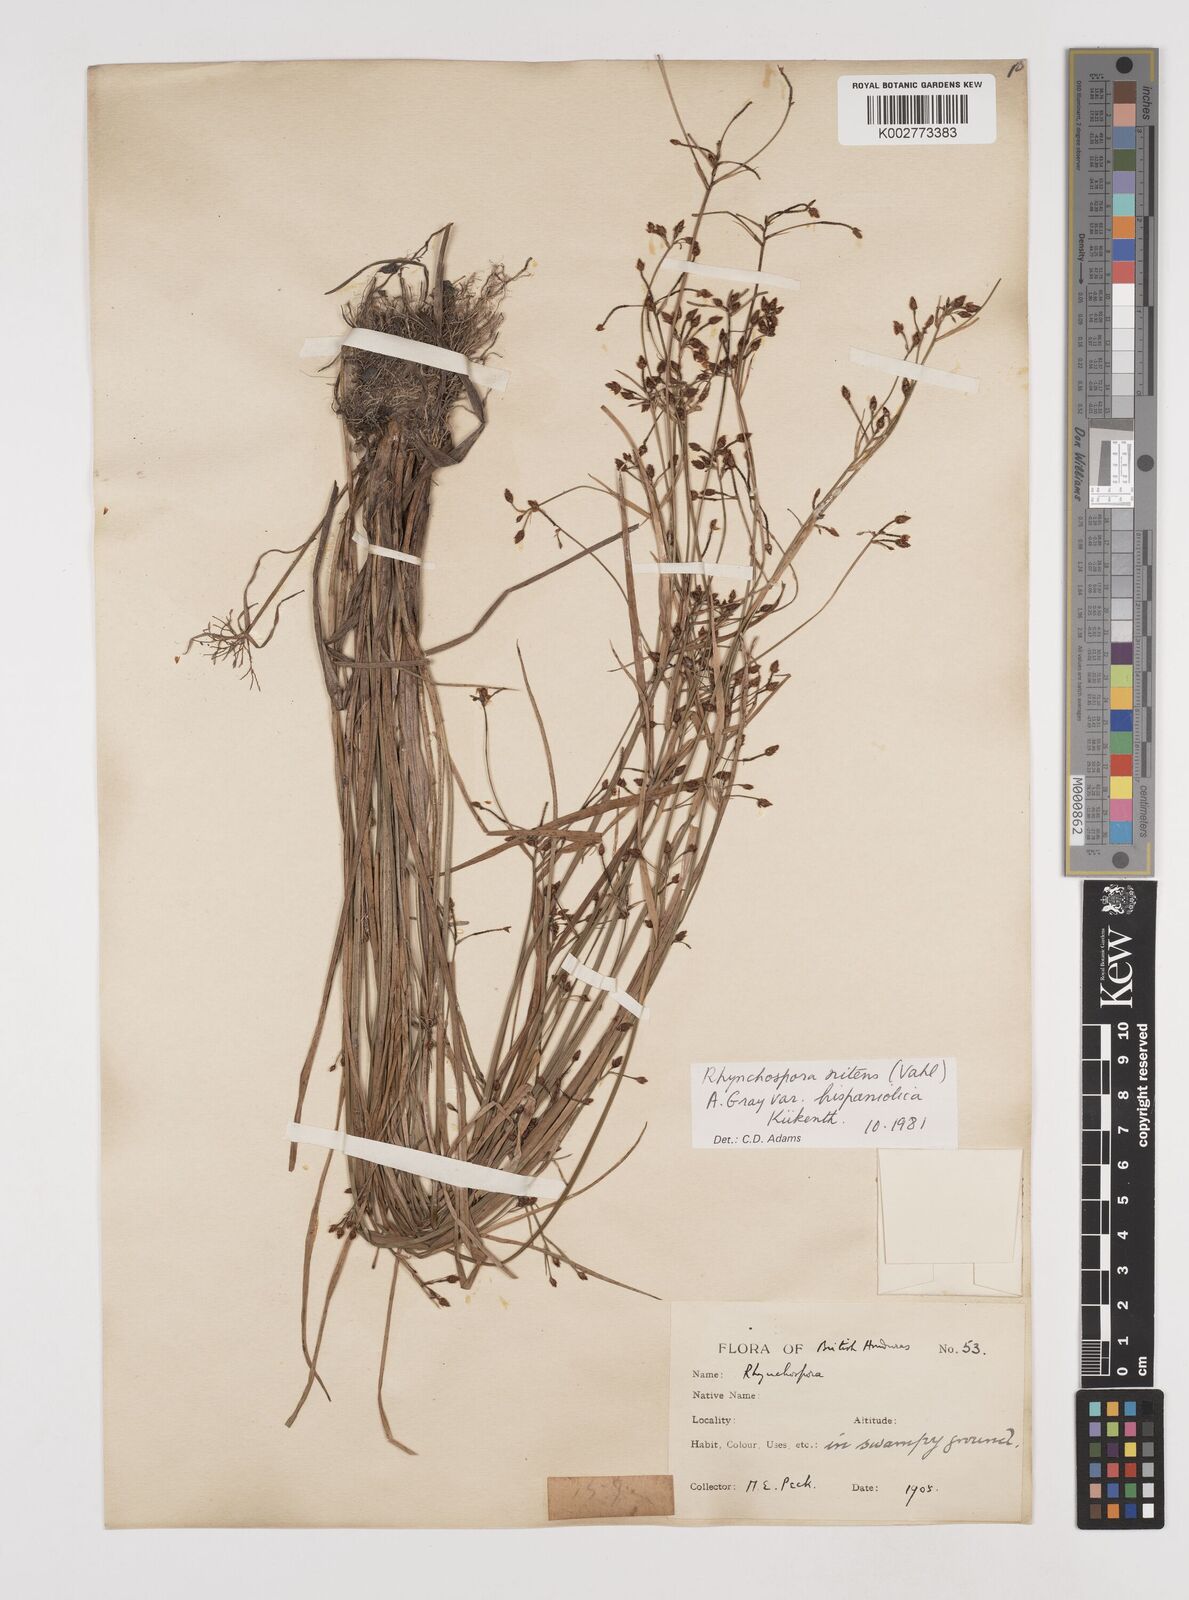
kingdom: Plantae
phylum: Tracheophyta
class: Liliopsida
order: Poales
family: Cyperaceae
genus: Rhynchospora
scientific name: Rhynchospora nitens
